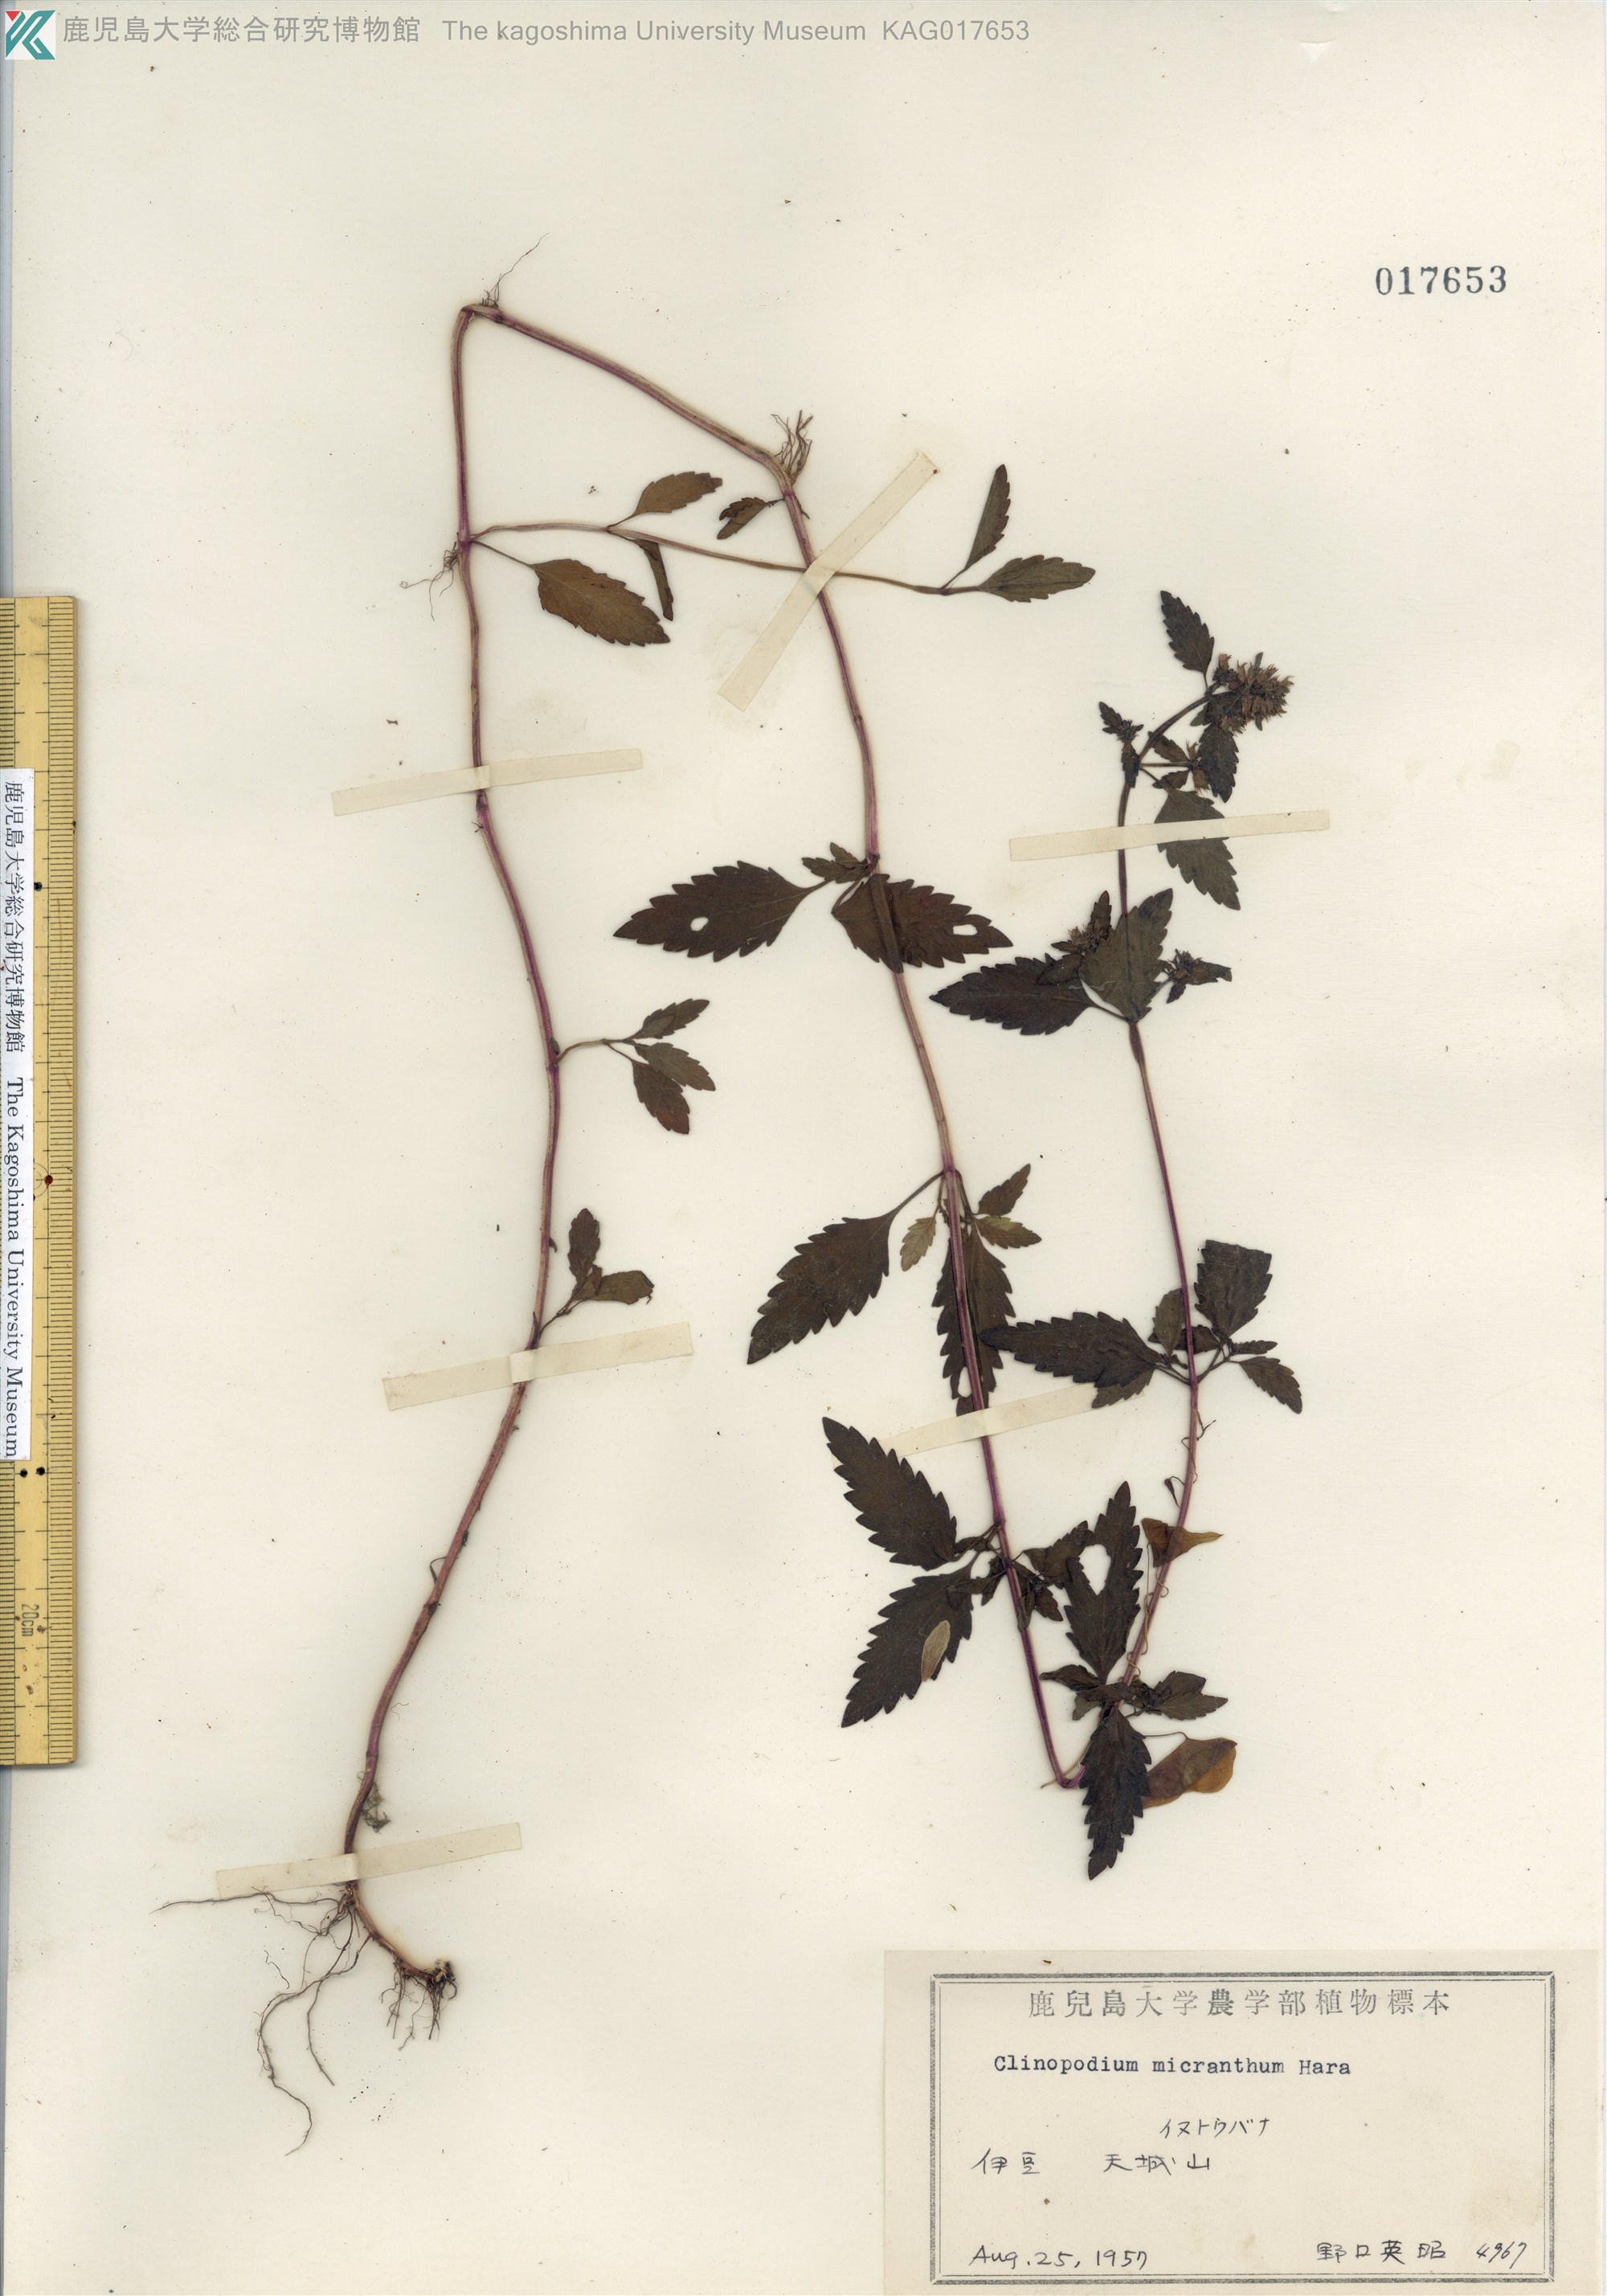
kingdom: Plantae
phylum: Tracheophyta
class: Magnoliopsida
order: Lamiales
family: Lamiaceae
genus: Clinopodium
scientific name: Clinopodium micranthum
